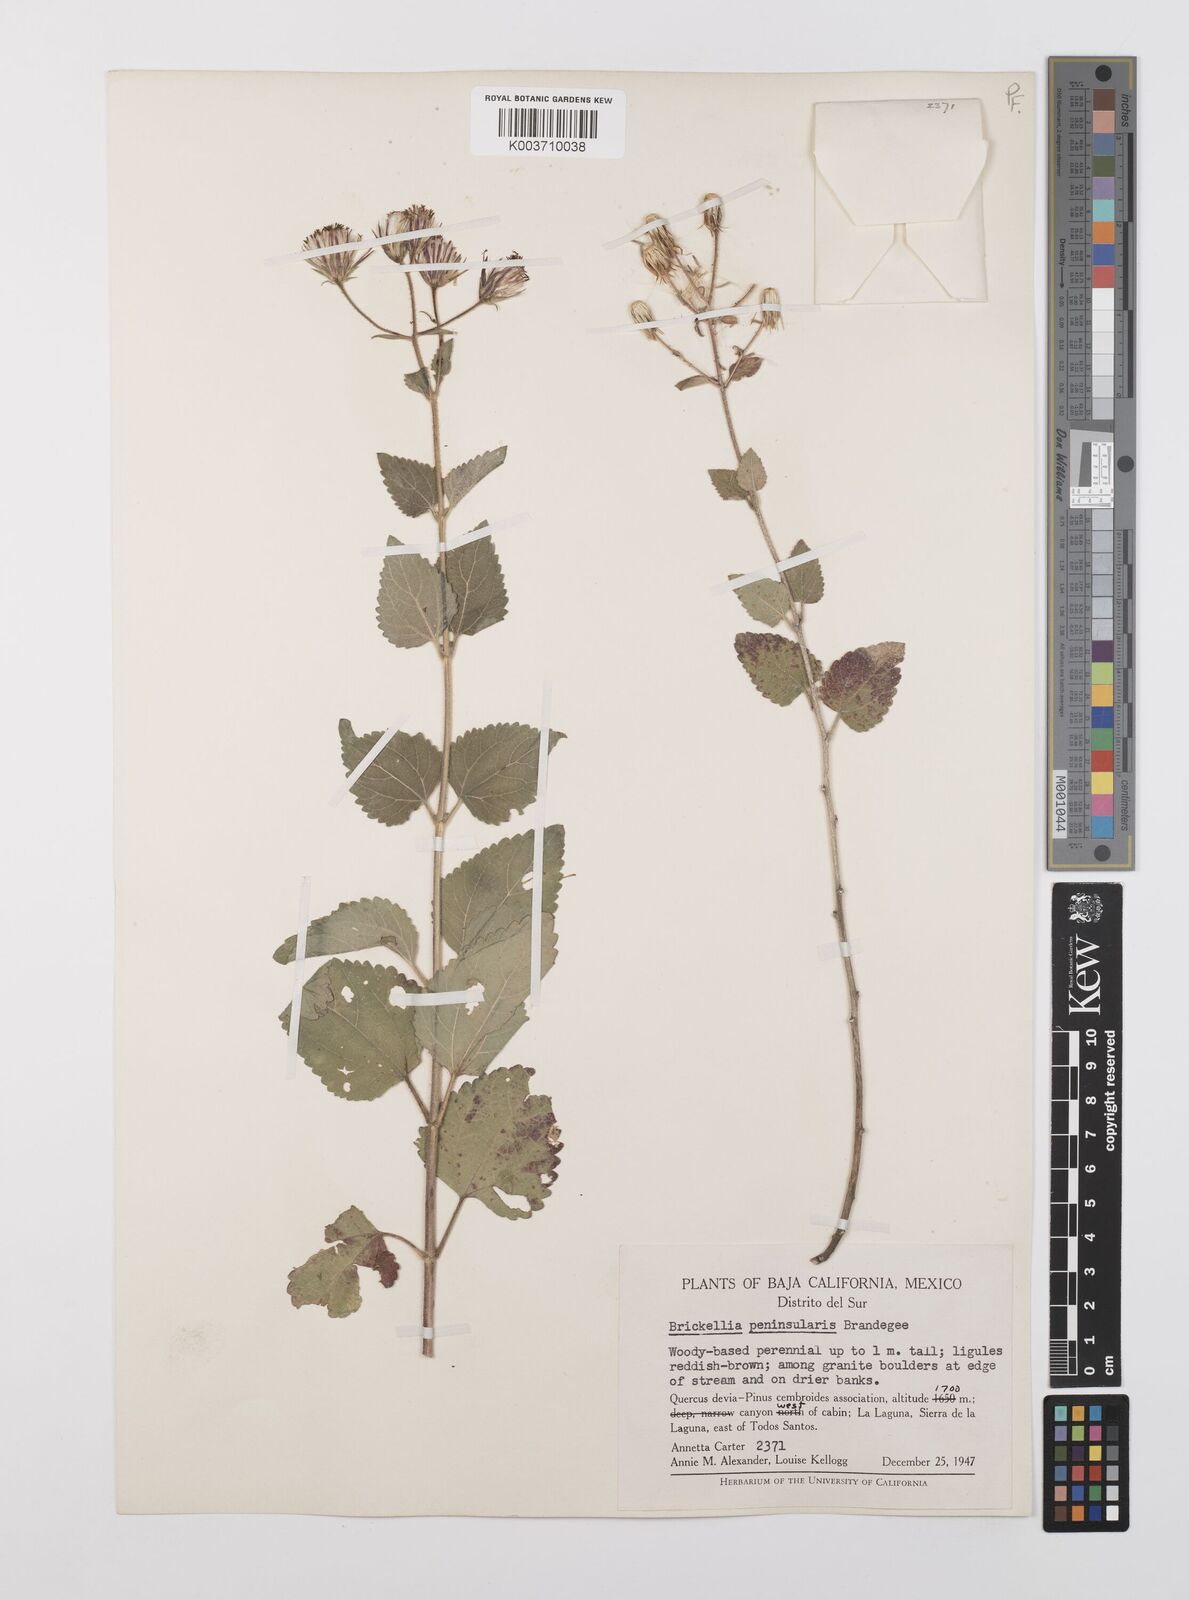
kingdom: Plantae
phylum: Tracheophyta
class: Magnoliopsida
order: Asterales
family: Asteraceae
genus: Brickellia
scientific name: Brickellia peninsularis
